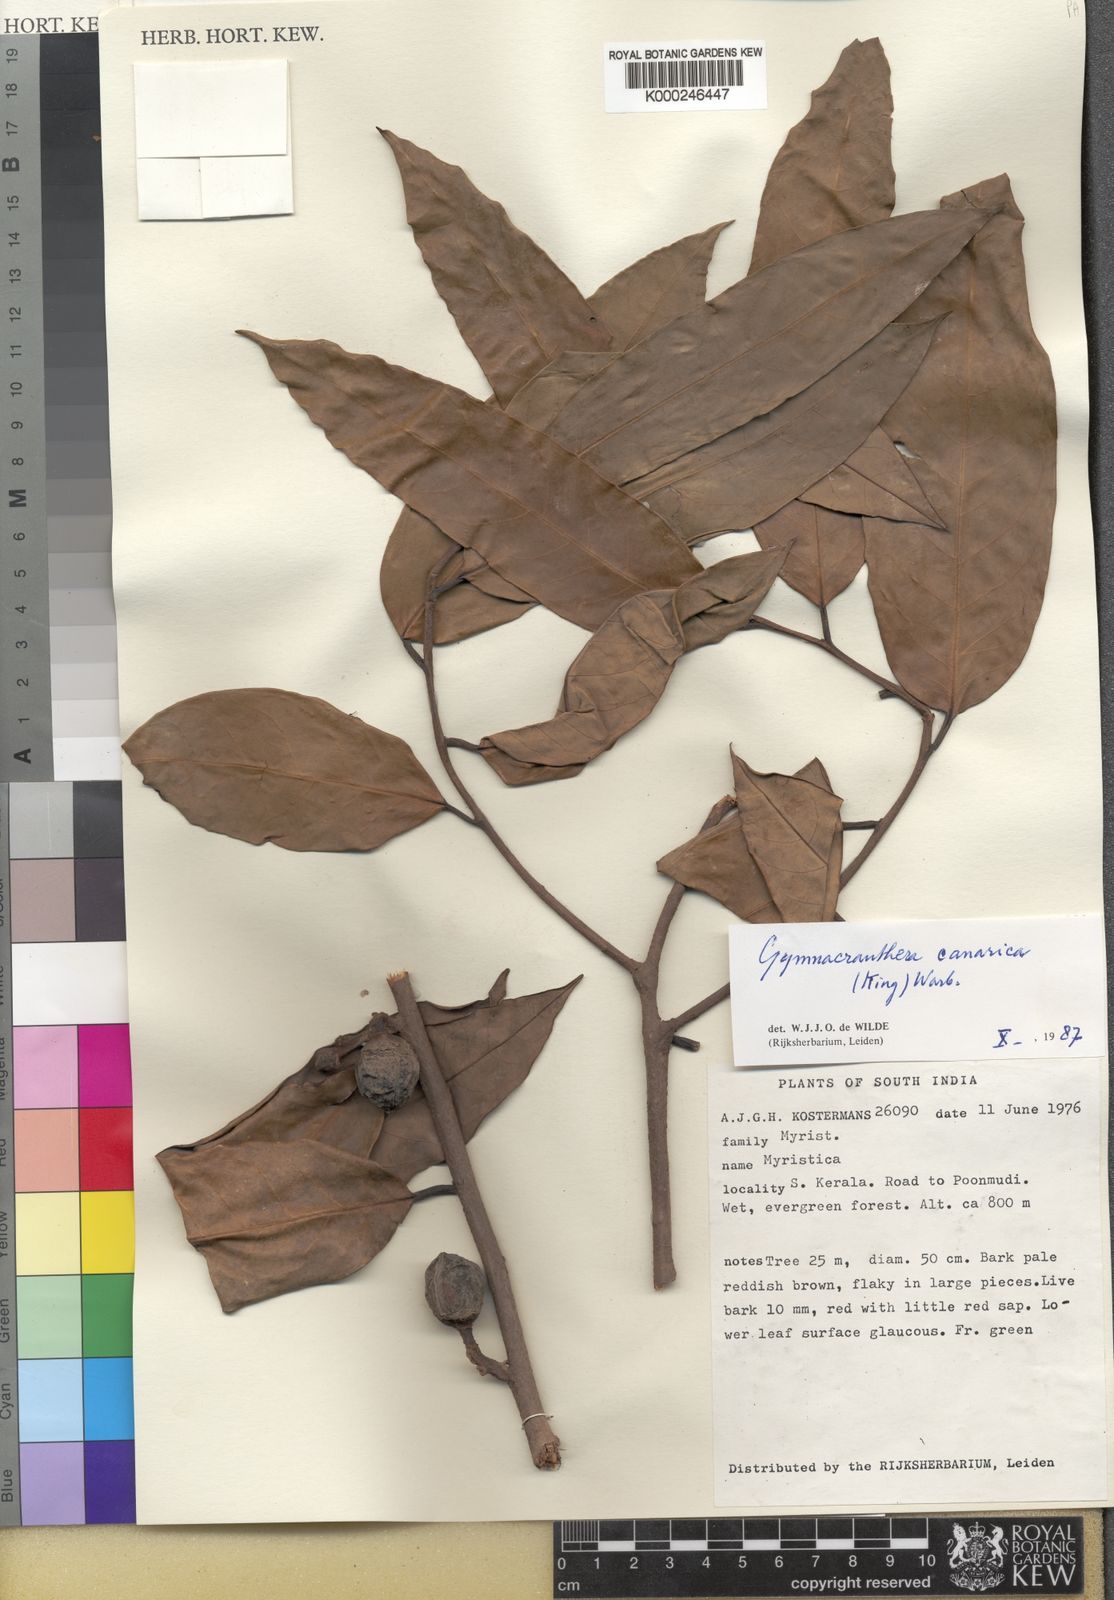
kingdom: Plantae
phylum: Tracheophyta
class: Magnoliopsida
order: Magnoliales
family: Myristicaceae
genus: Gymnacranthera
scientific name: Gymnacranthera canarica
